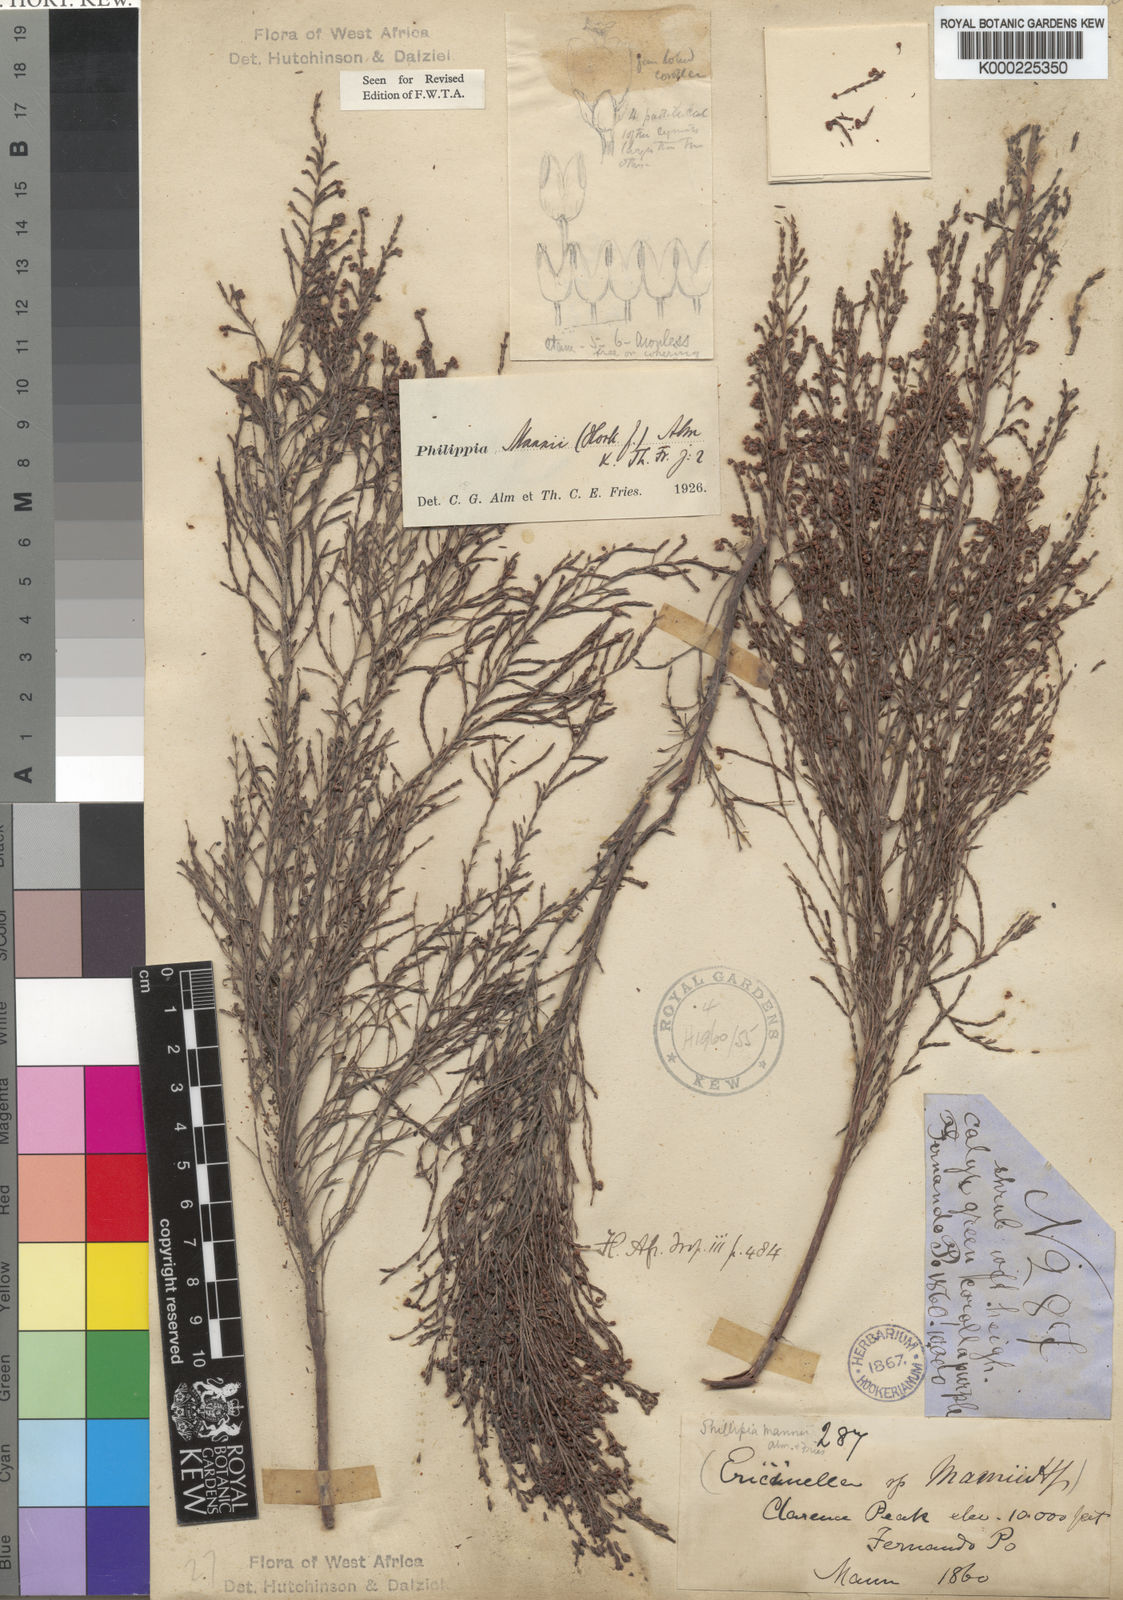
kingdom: Plantae
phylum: Tracheophyta
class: Magnoliopsida
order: Ericales
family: Ericaceae
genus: Erica
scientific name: Erica mannii
